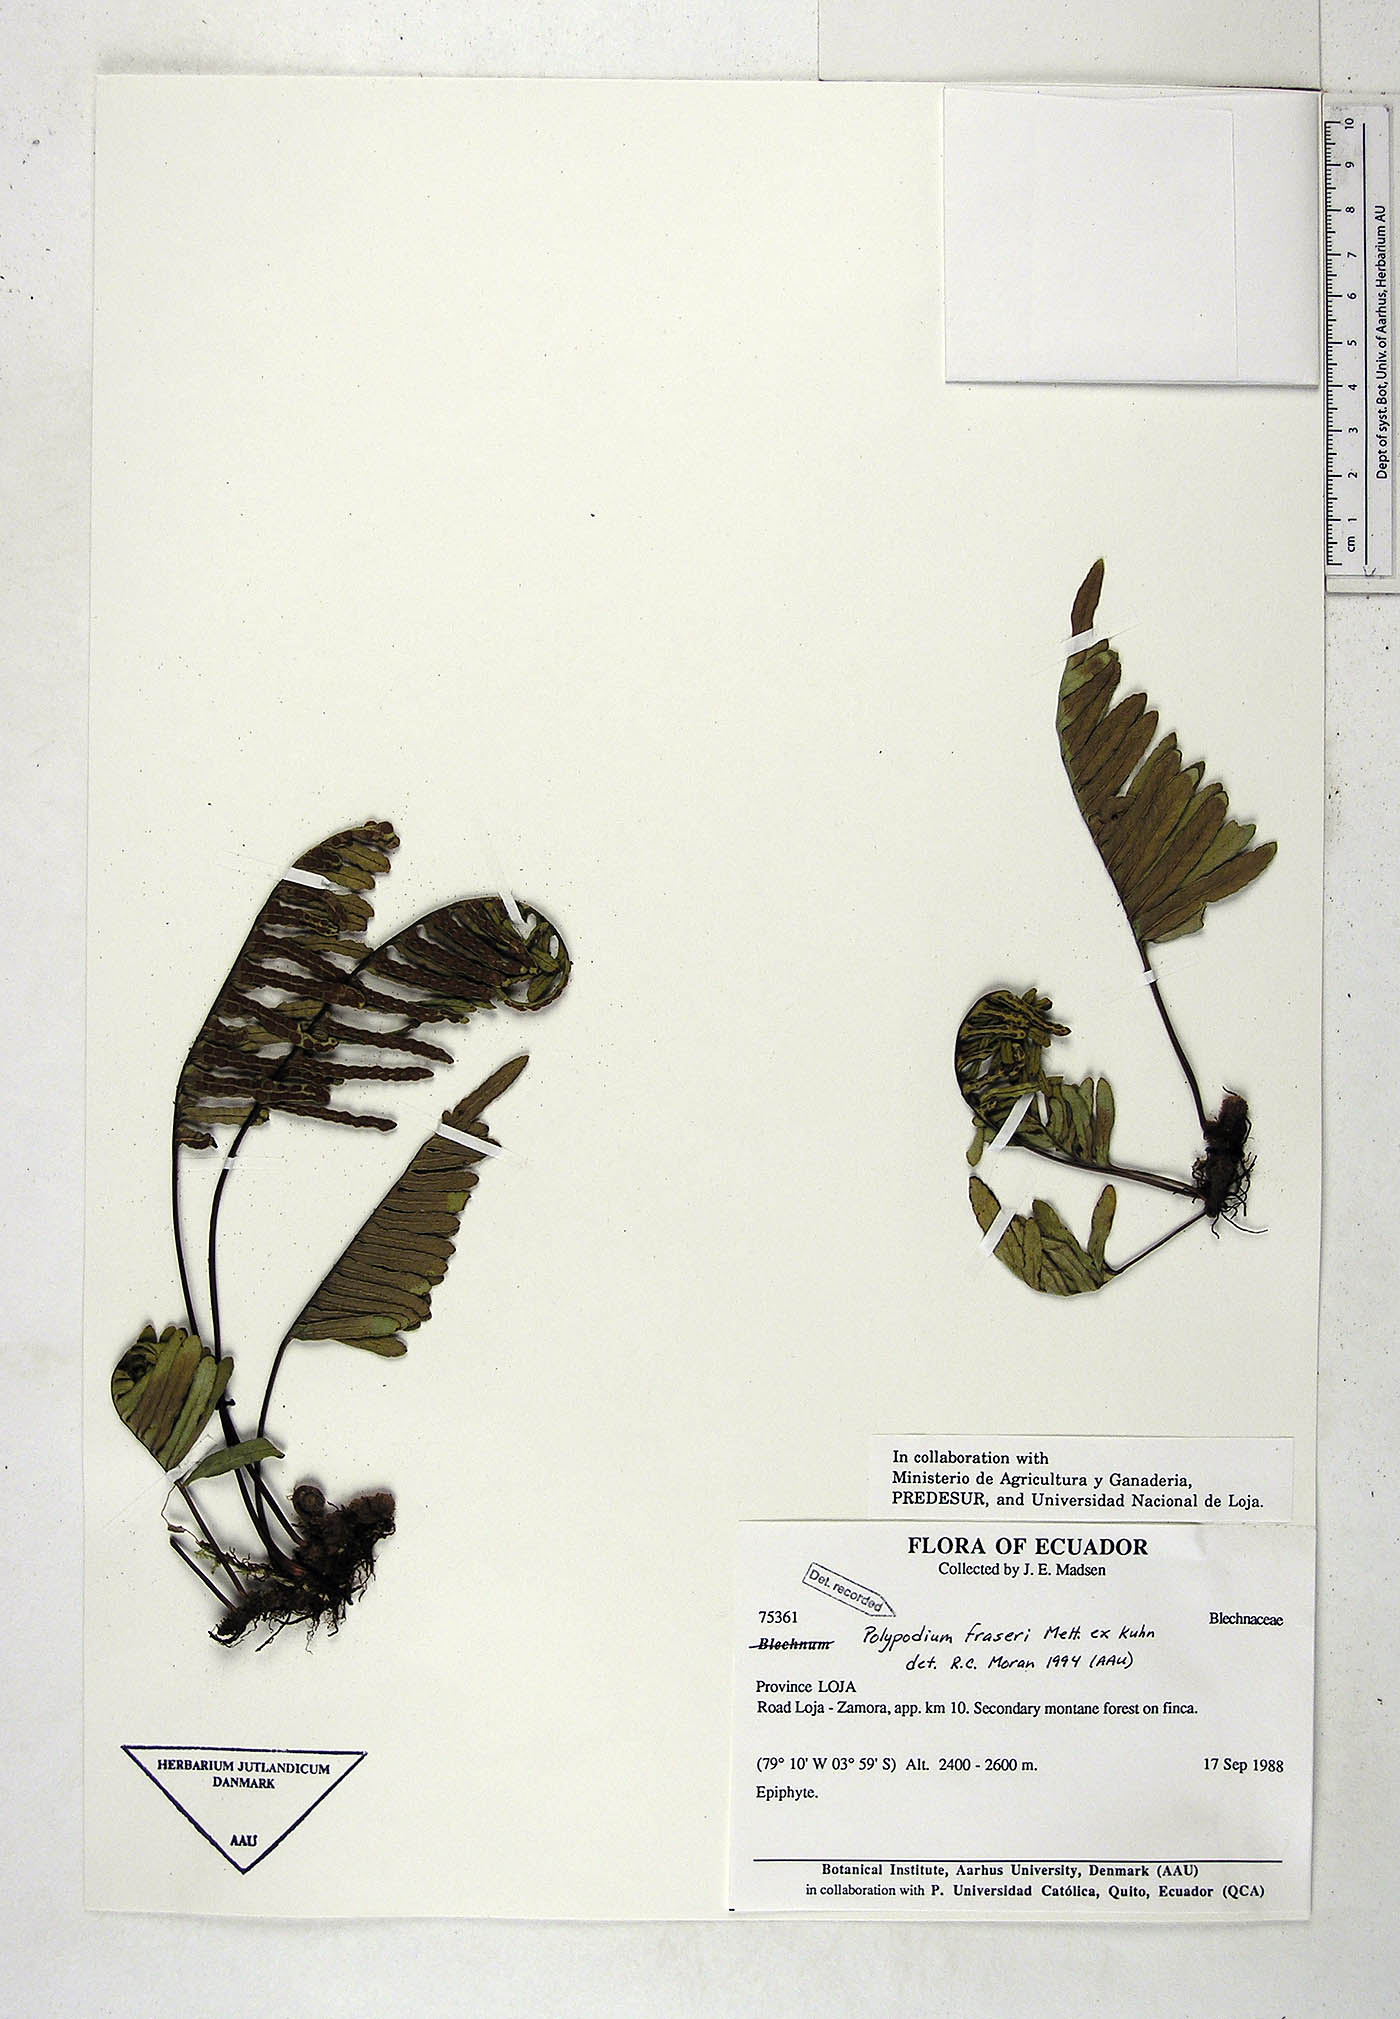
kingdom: Plantae
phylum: Tracheophyta
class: Polypodiopsida
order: Polypodiales
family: Polypodiaceae
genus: Pleopeltis
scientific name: Pleopeltis fraseri
